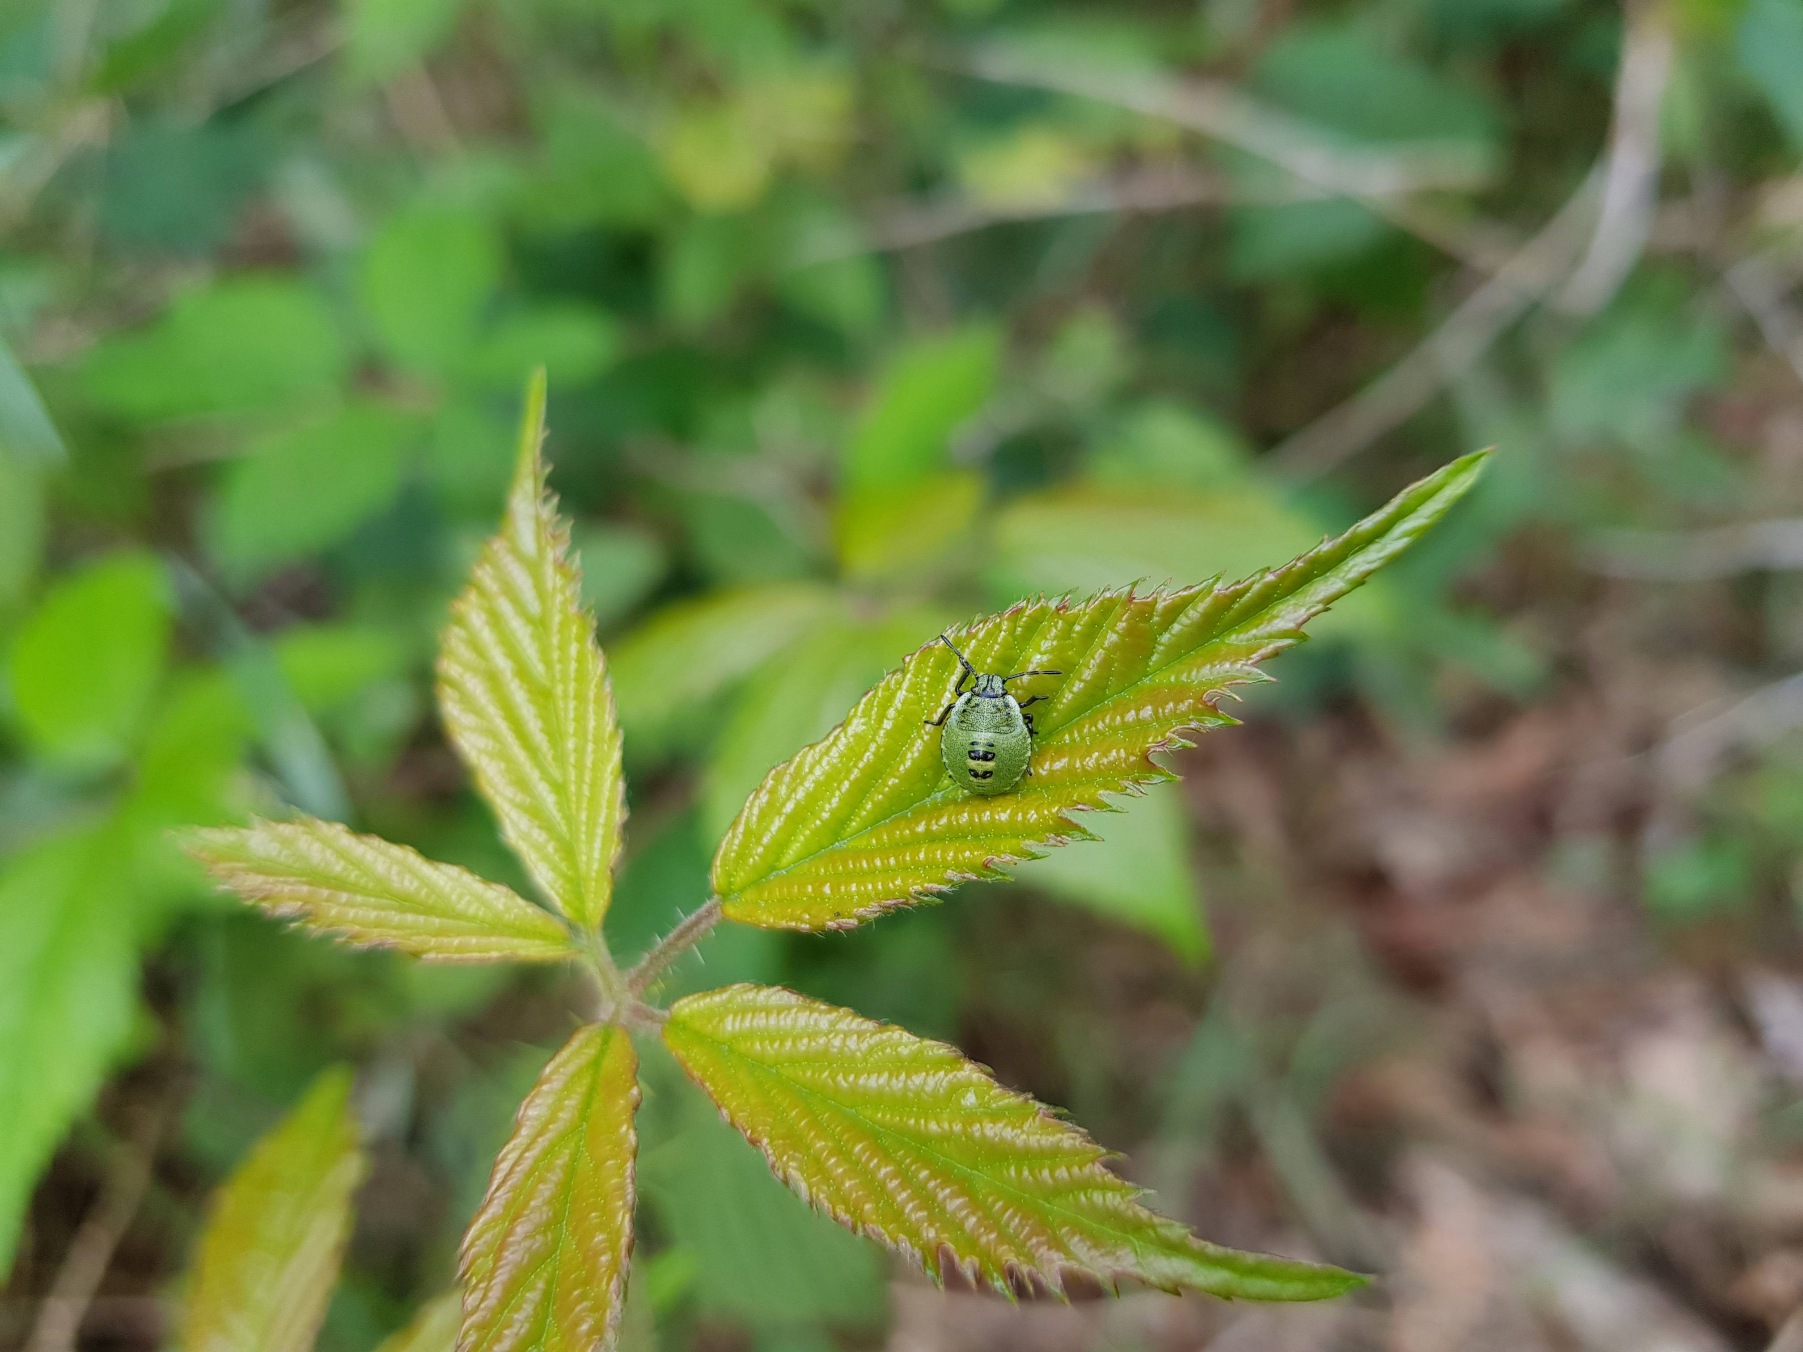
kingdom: Animalia
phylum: Arthropoda
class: Insecta
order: Hemiptera
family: Pentatomidae
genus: Palomena
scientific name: Palomena prasina
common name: Grøn bredtæge
